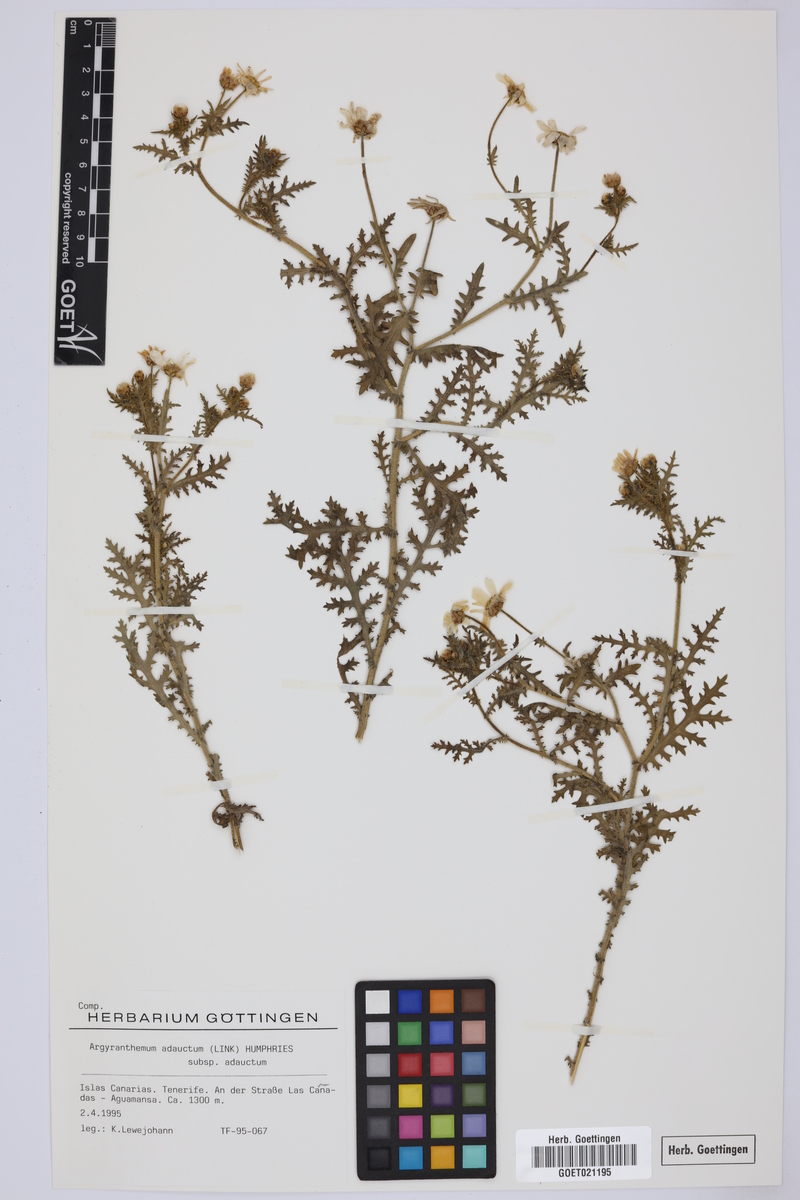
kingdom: Plantae
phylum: Tracheophyta
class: Magnoliopsida
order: Asterales
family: Asteraceae
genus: Argyranthemum
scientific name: Argyranthemum adauctum
